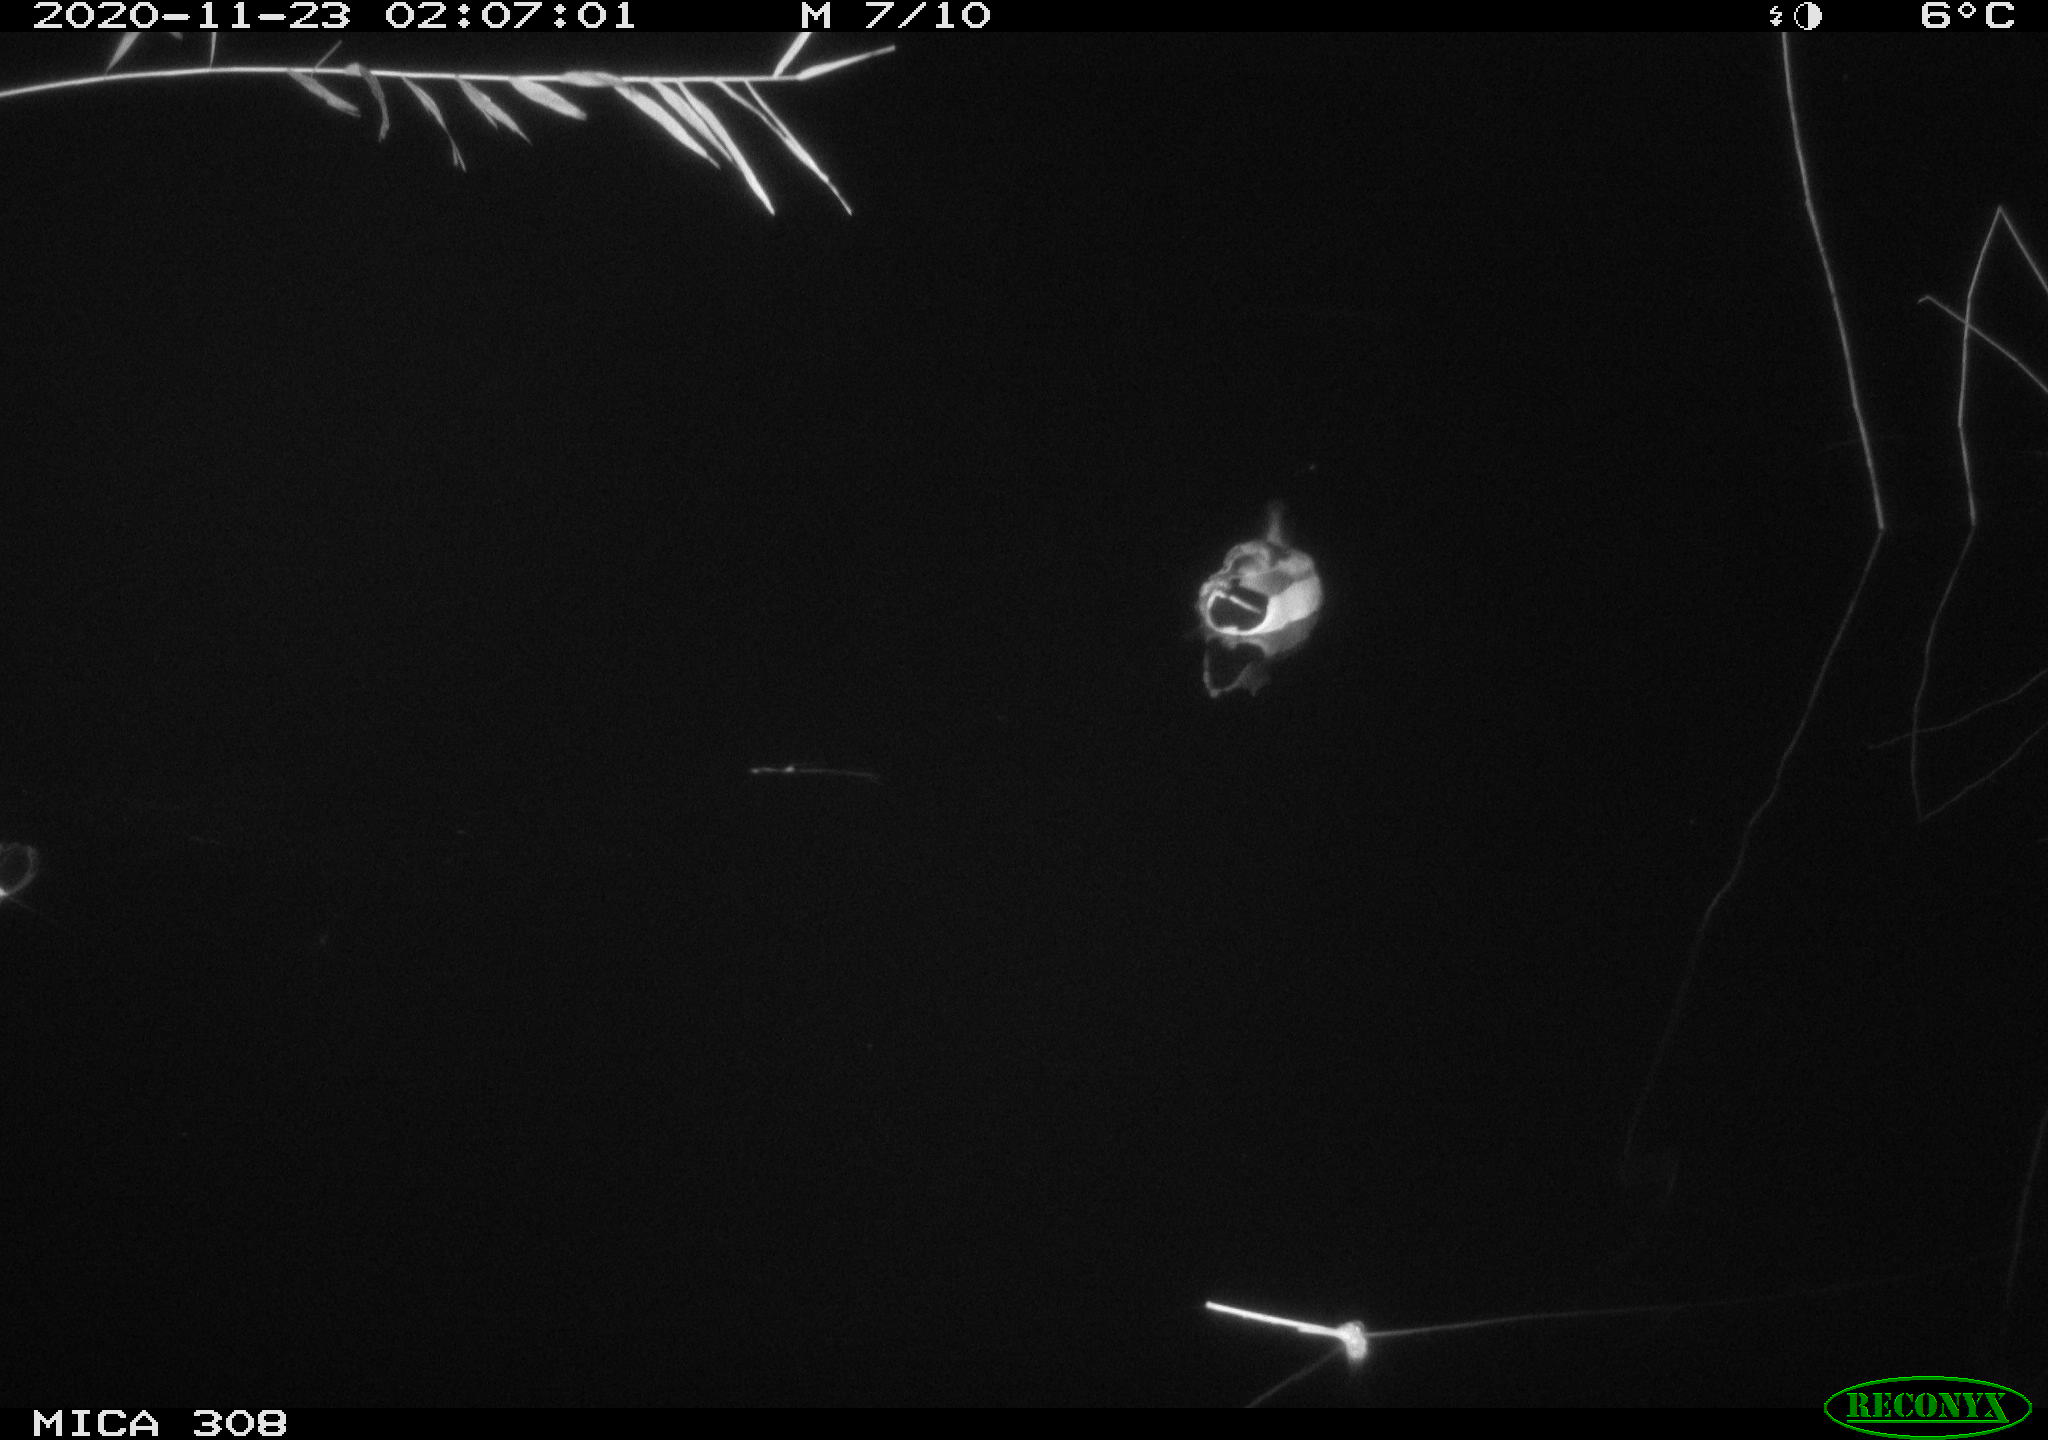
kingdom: Animalia
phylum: Chordata
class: Aves
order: Anseriformes
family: Anatidae
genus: Anas
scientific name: Anas platyrhynchos
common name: Mallard
